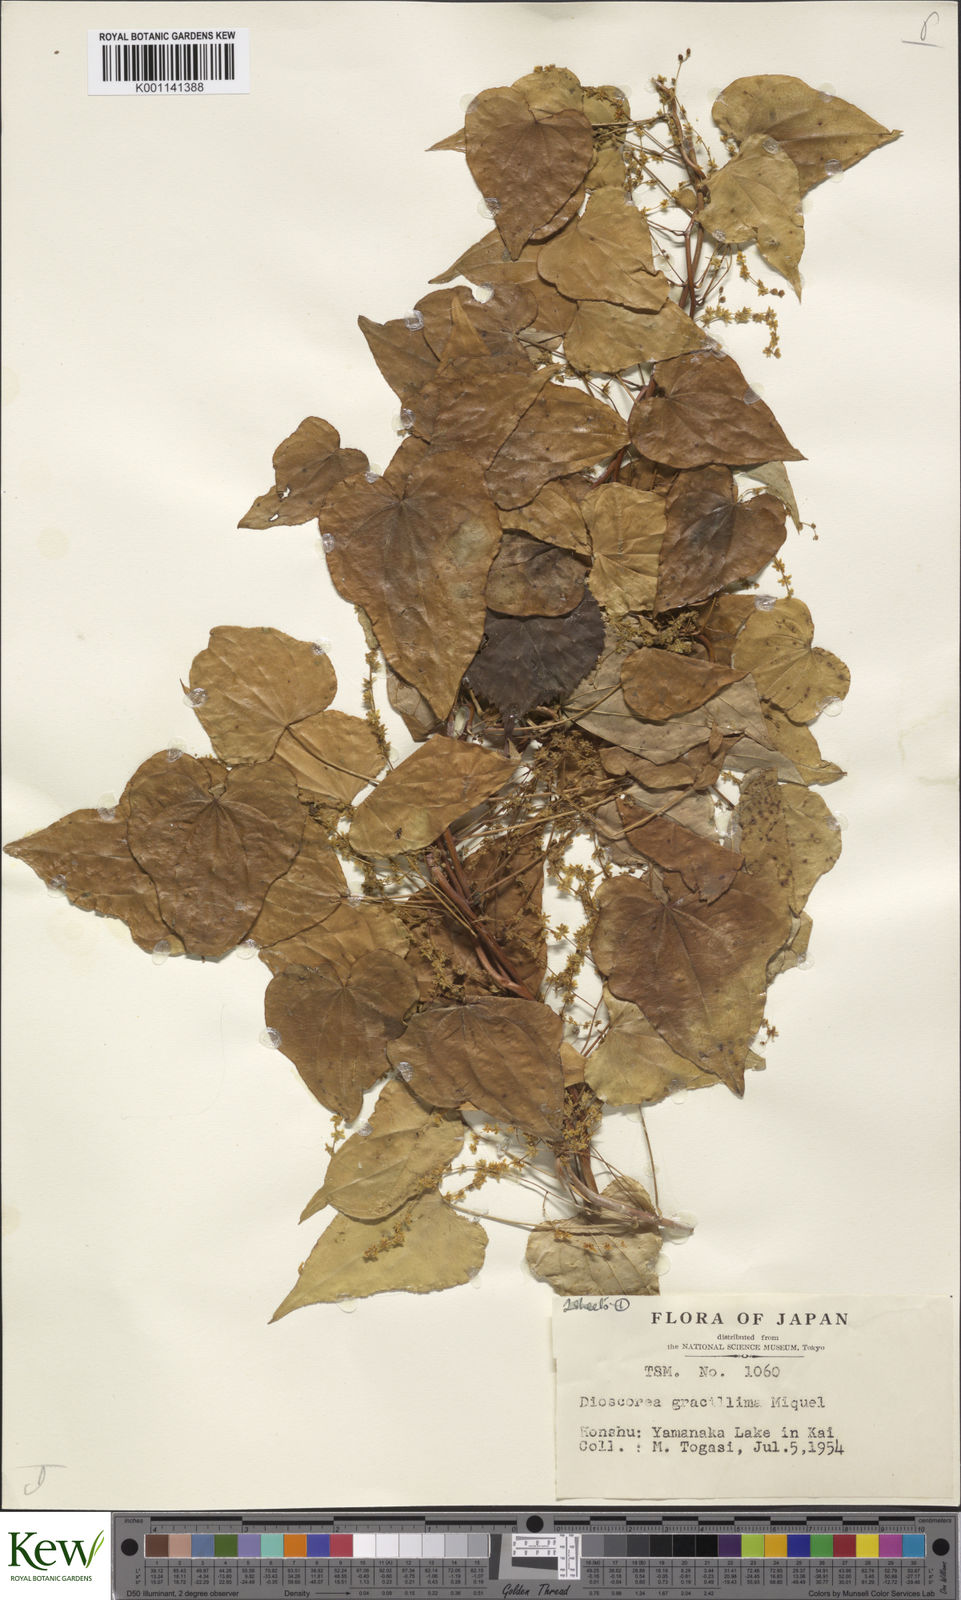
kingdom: Plantae
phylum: Tracheophyta
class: Liliopsida
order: Dioscoreales
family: Dioscoreaceae
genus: Dioscorea
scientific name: Dioscorea gracillima
